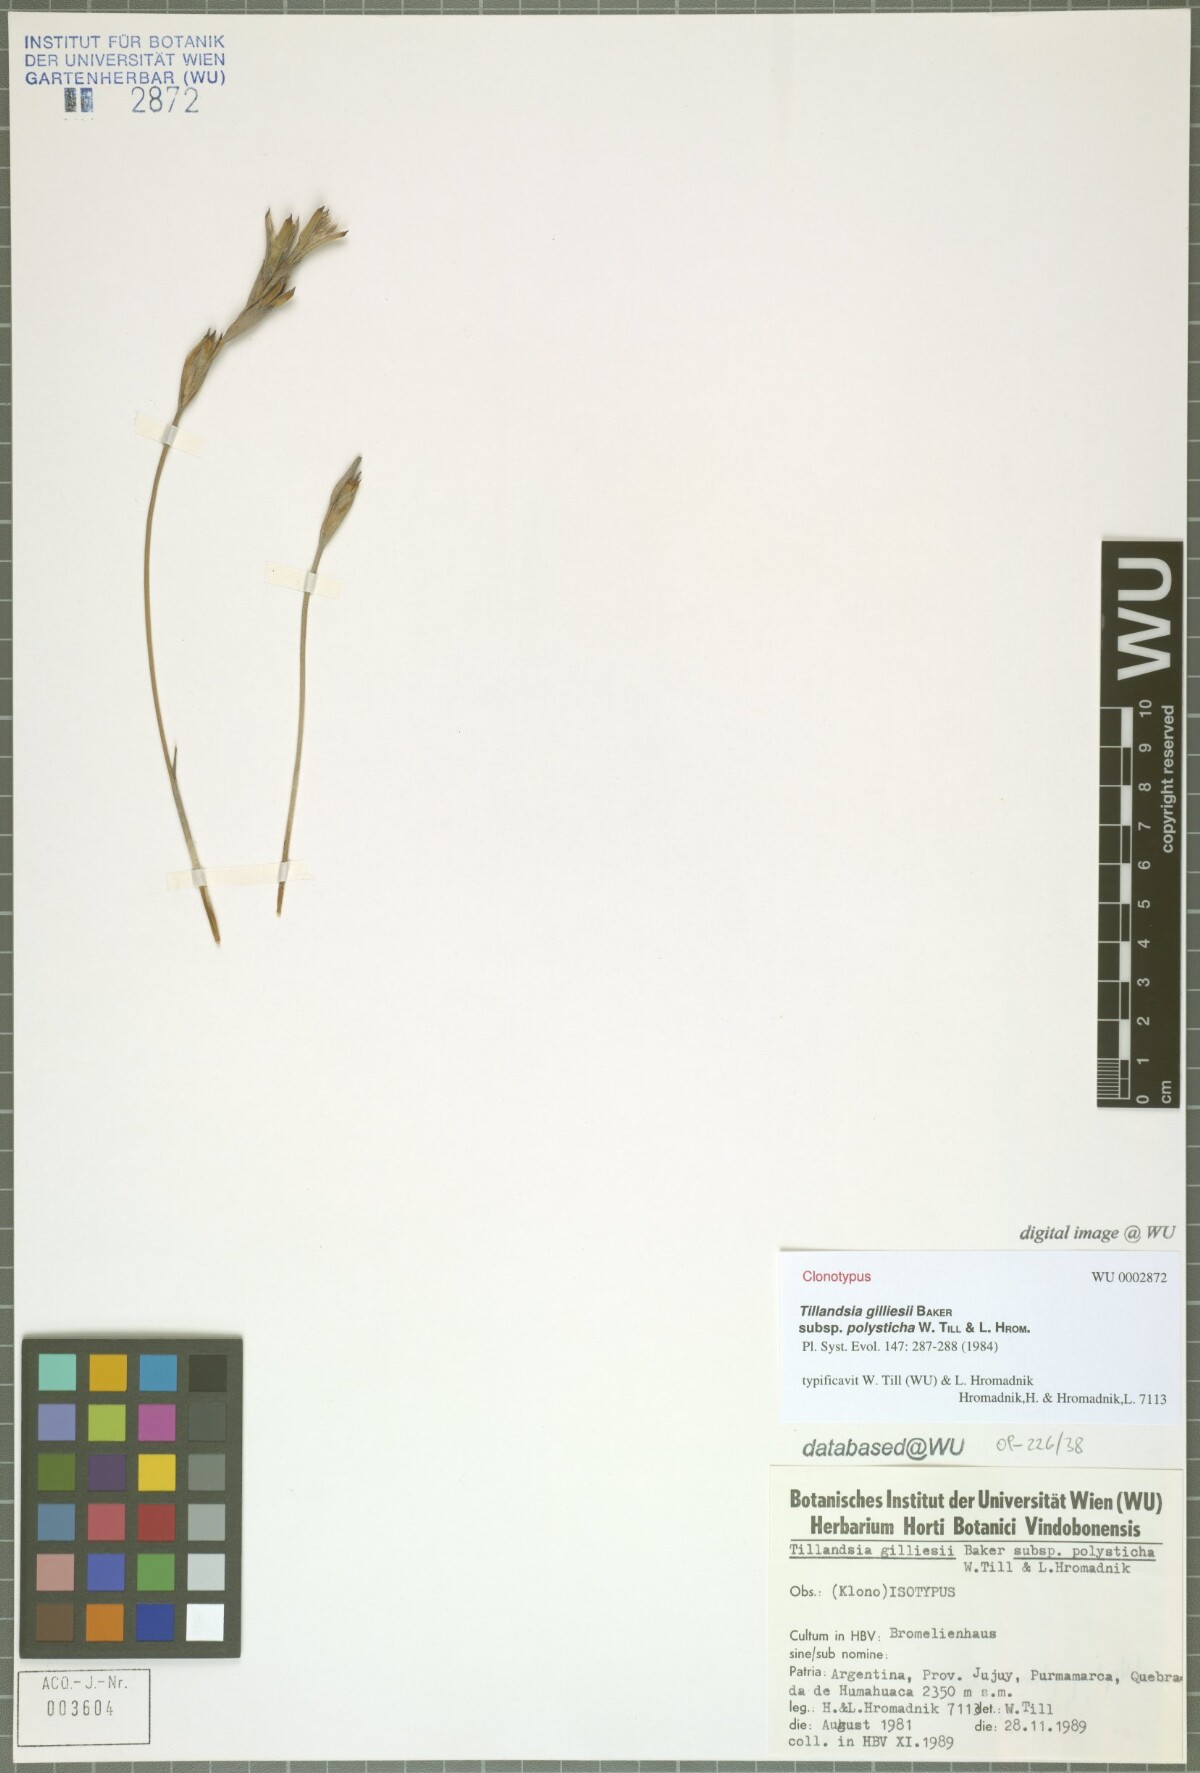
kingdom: Plantae
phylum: Tracheophyta
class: Liliopsida
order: Poales
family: Bromeliaceae
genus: Tillandsia
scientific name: Tillandsia gilliesii
